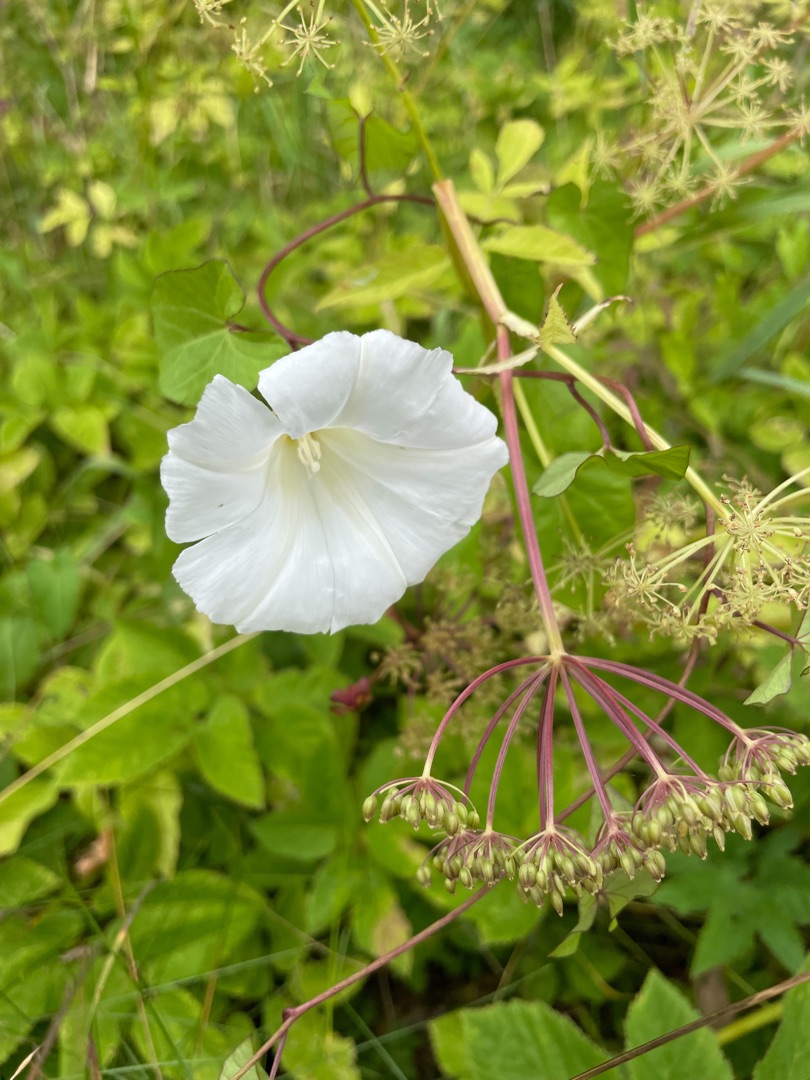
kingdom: Plantae
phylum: Tracheophyta
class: Magnoliopsida
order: Solanales
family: Convolvulaceae
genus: Calystegia
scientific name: Calystegia sepium
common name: Gærde-snerle
